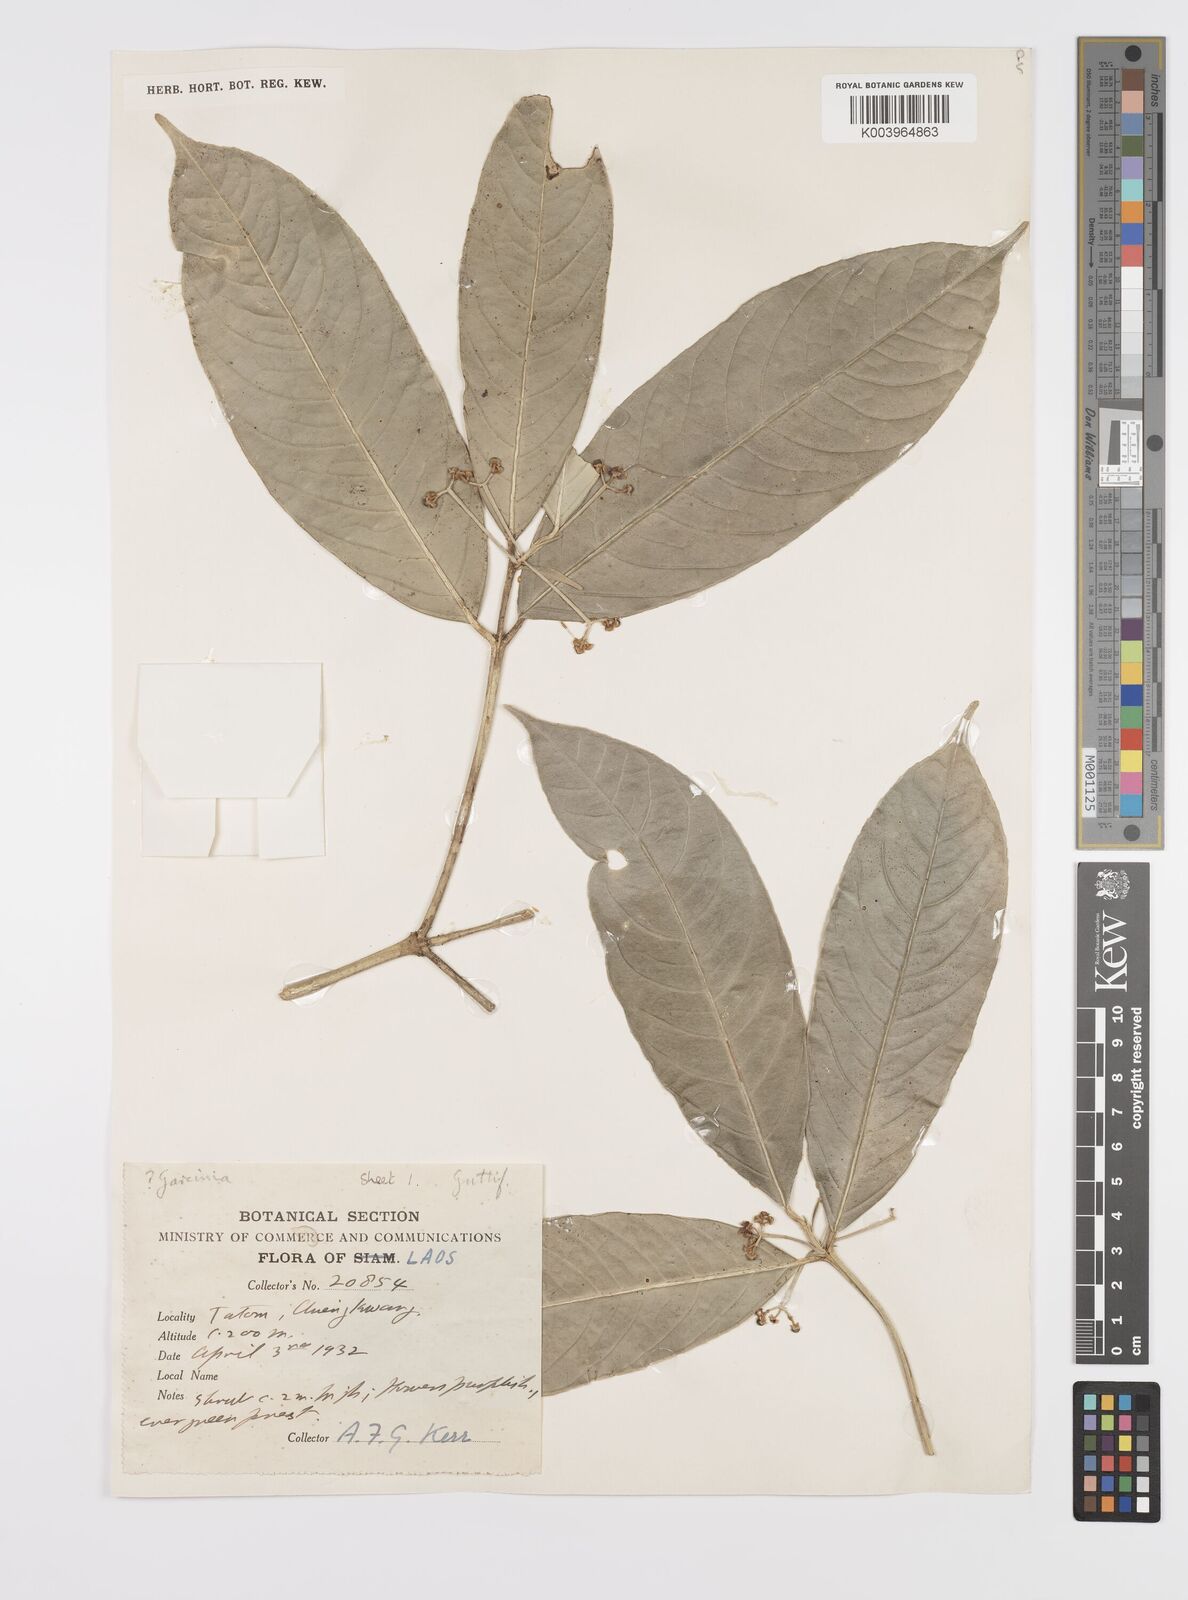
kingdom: Plantae
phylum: Tracheophyta
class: Magnoliopsida
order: Malpighiales
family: Clusiaceae
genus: Garcinia
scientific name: Garcinia
